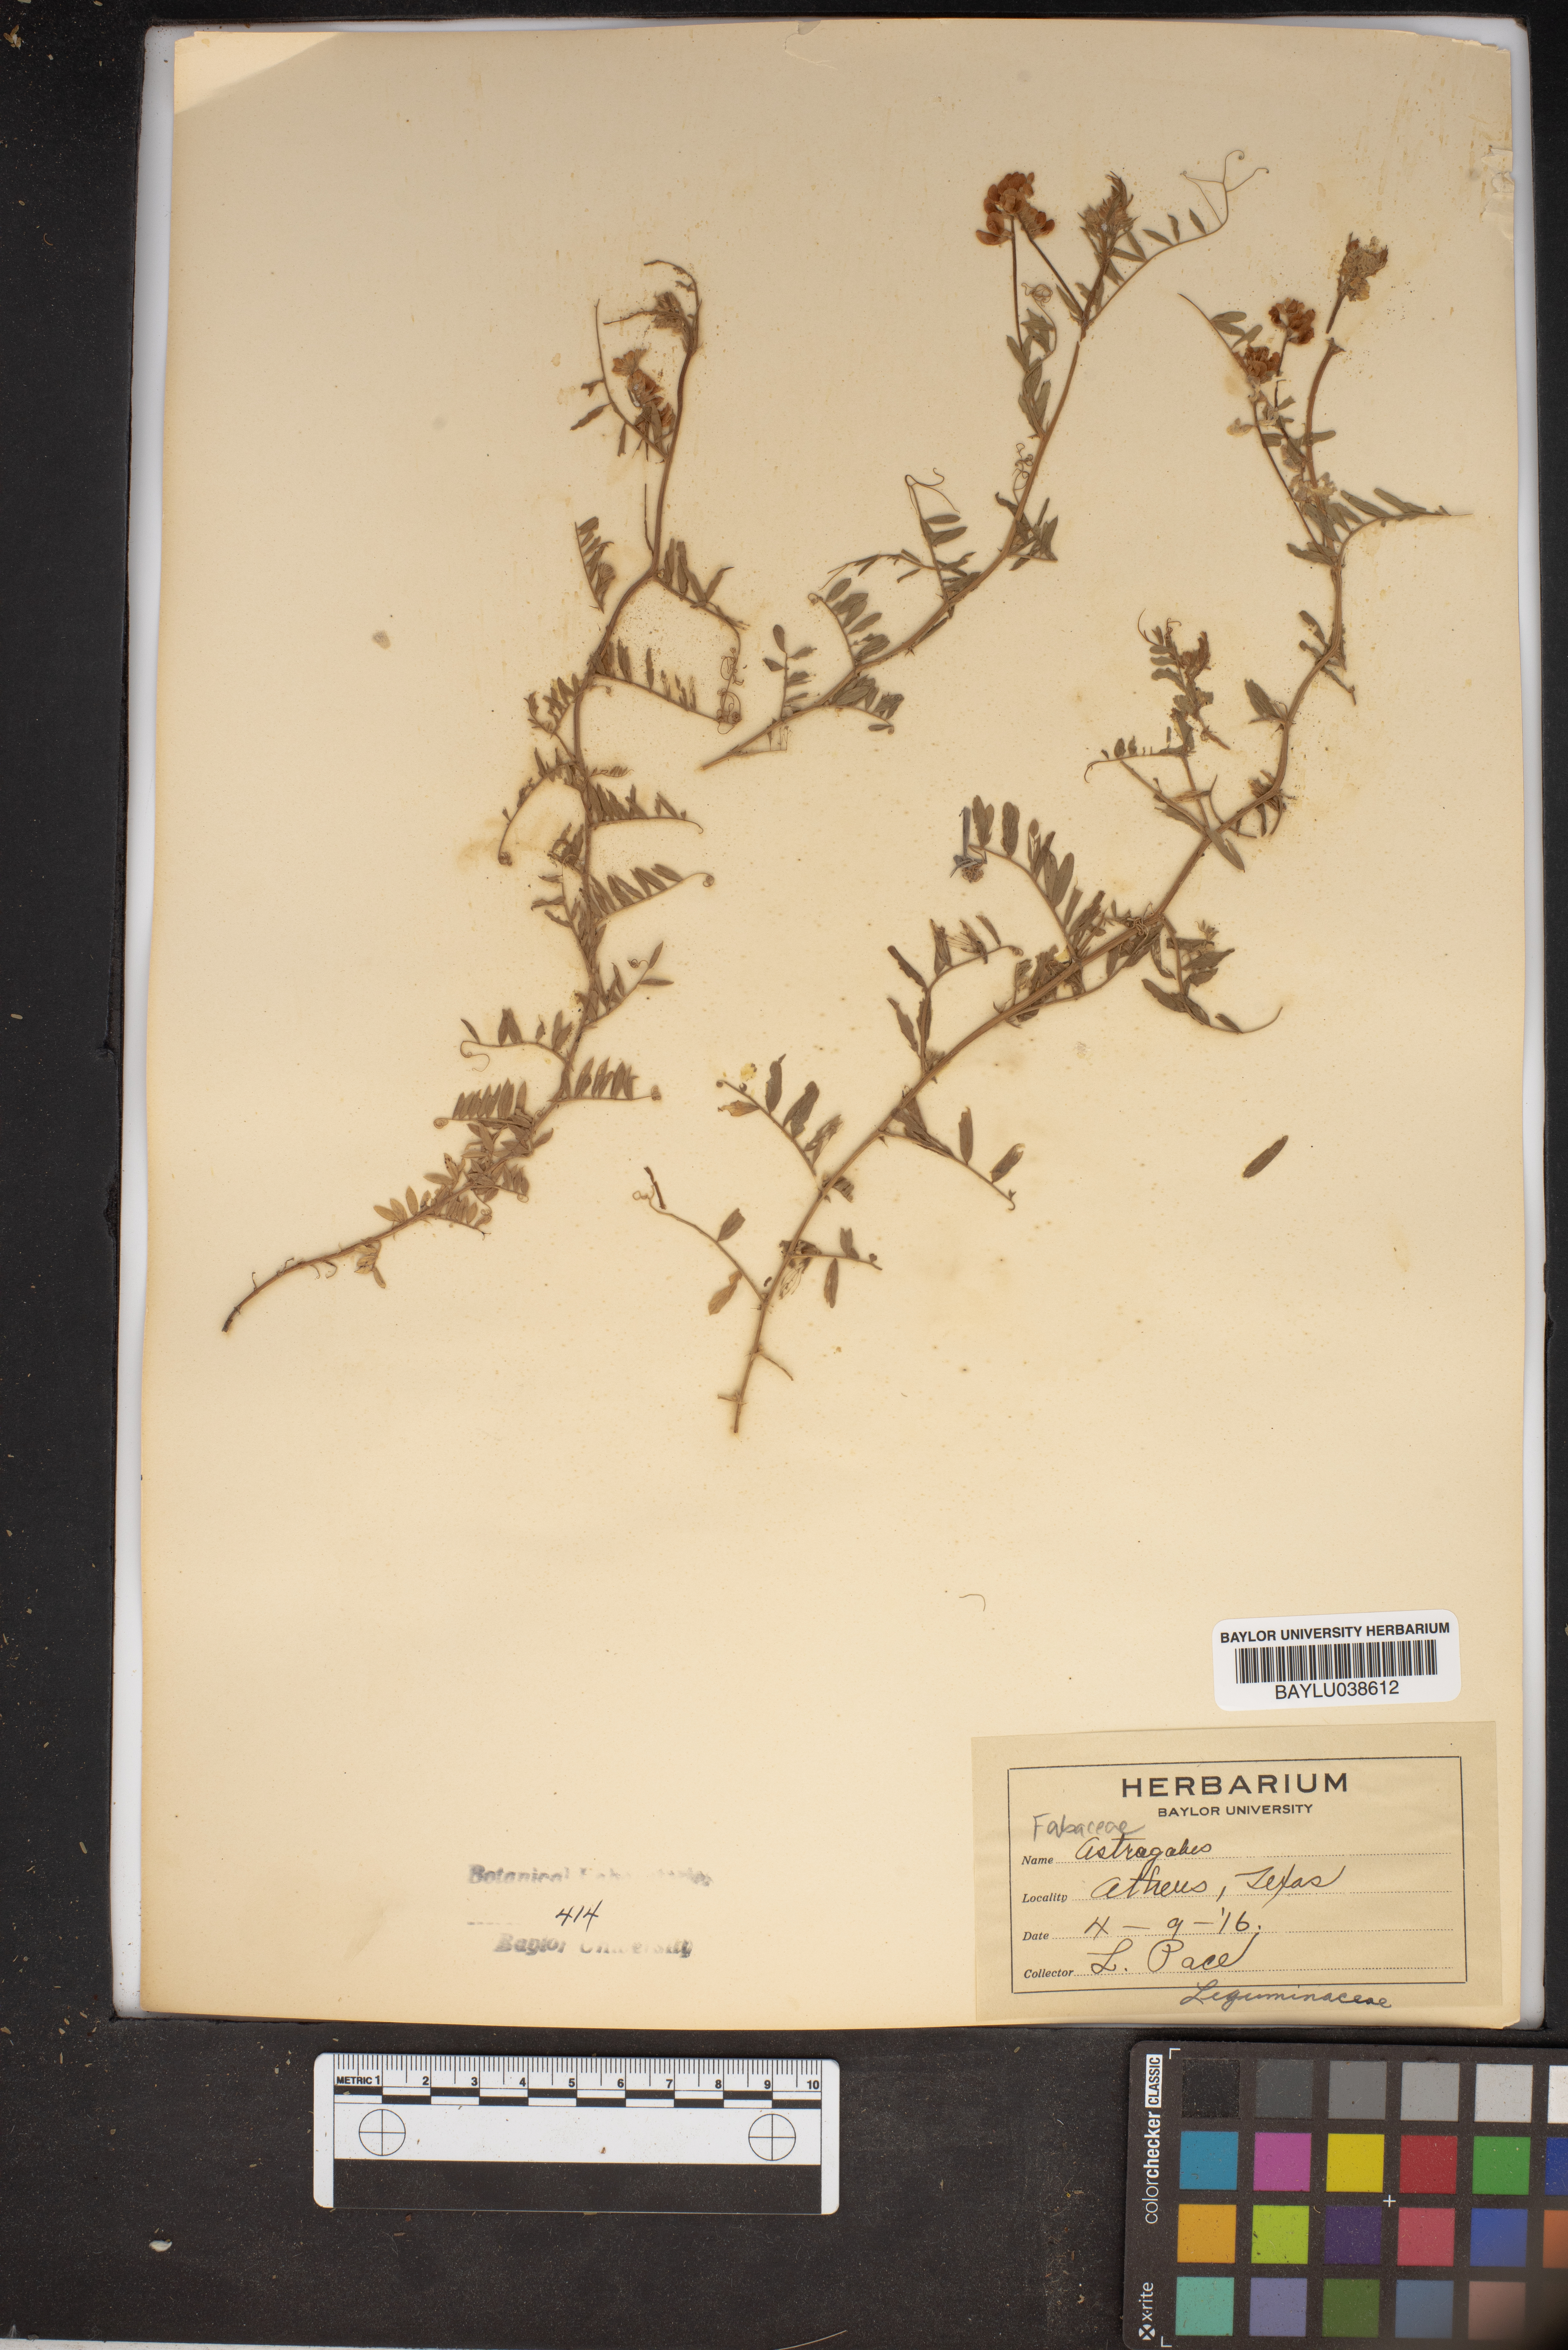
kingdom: Plantae
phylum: Tracheophyta
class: Magnoliopsida
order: Fabales
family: Fabaceae
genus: Astragalus
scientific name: Astragalus
